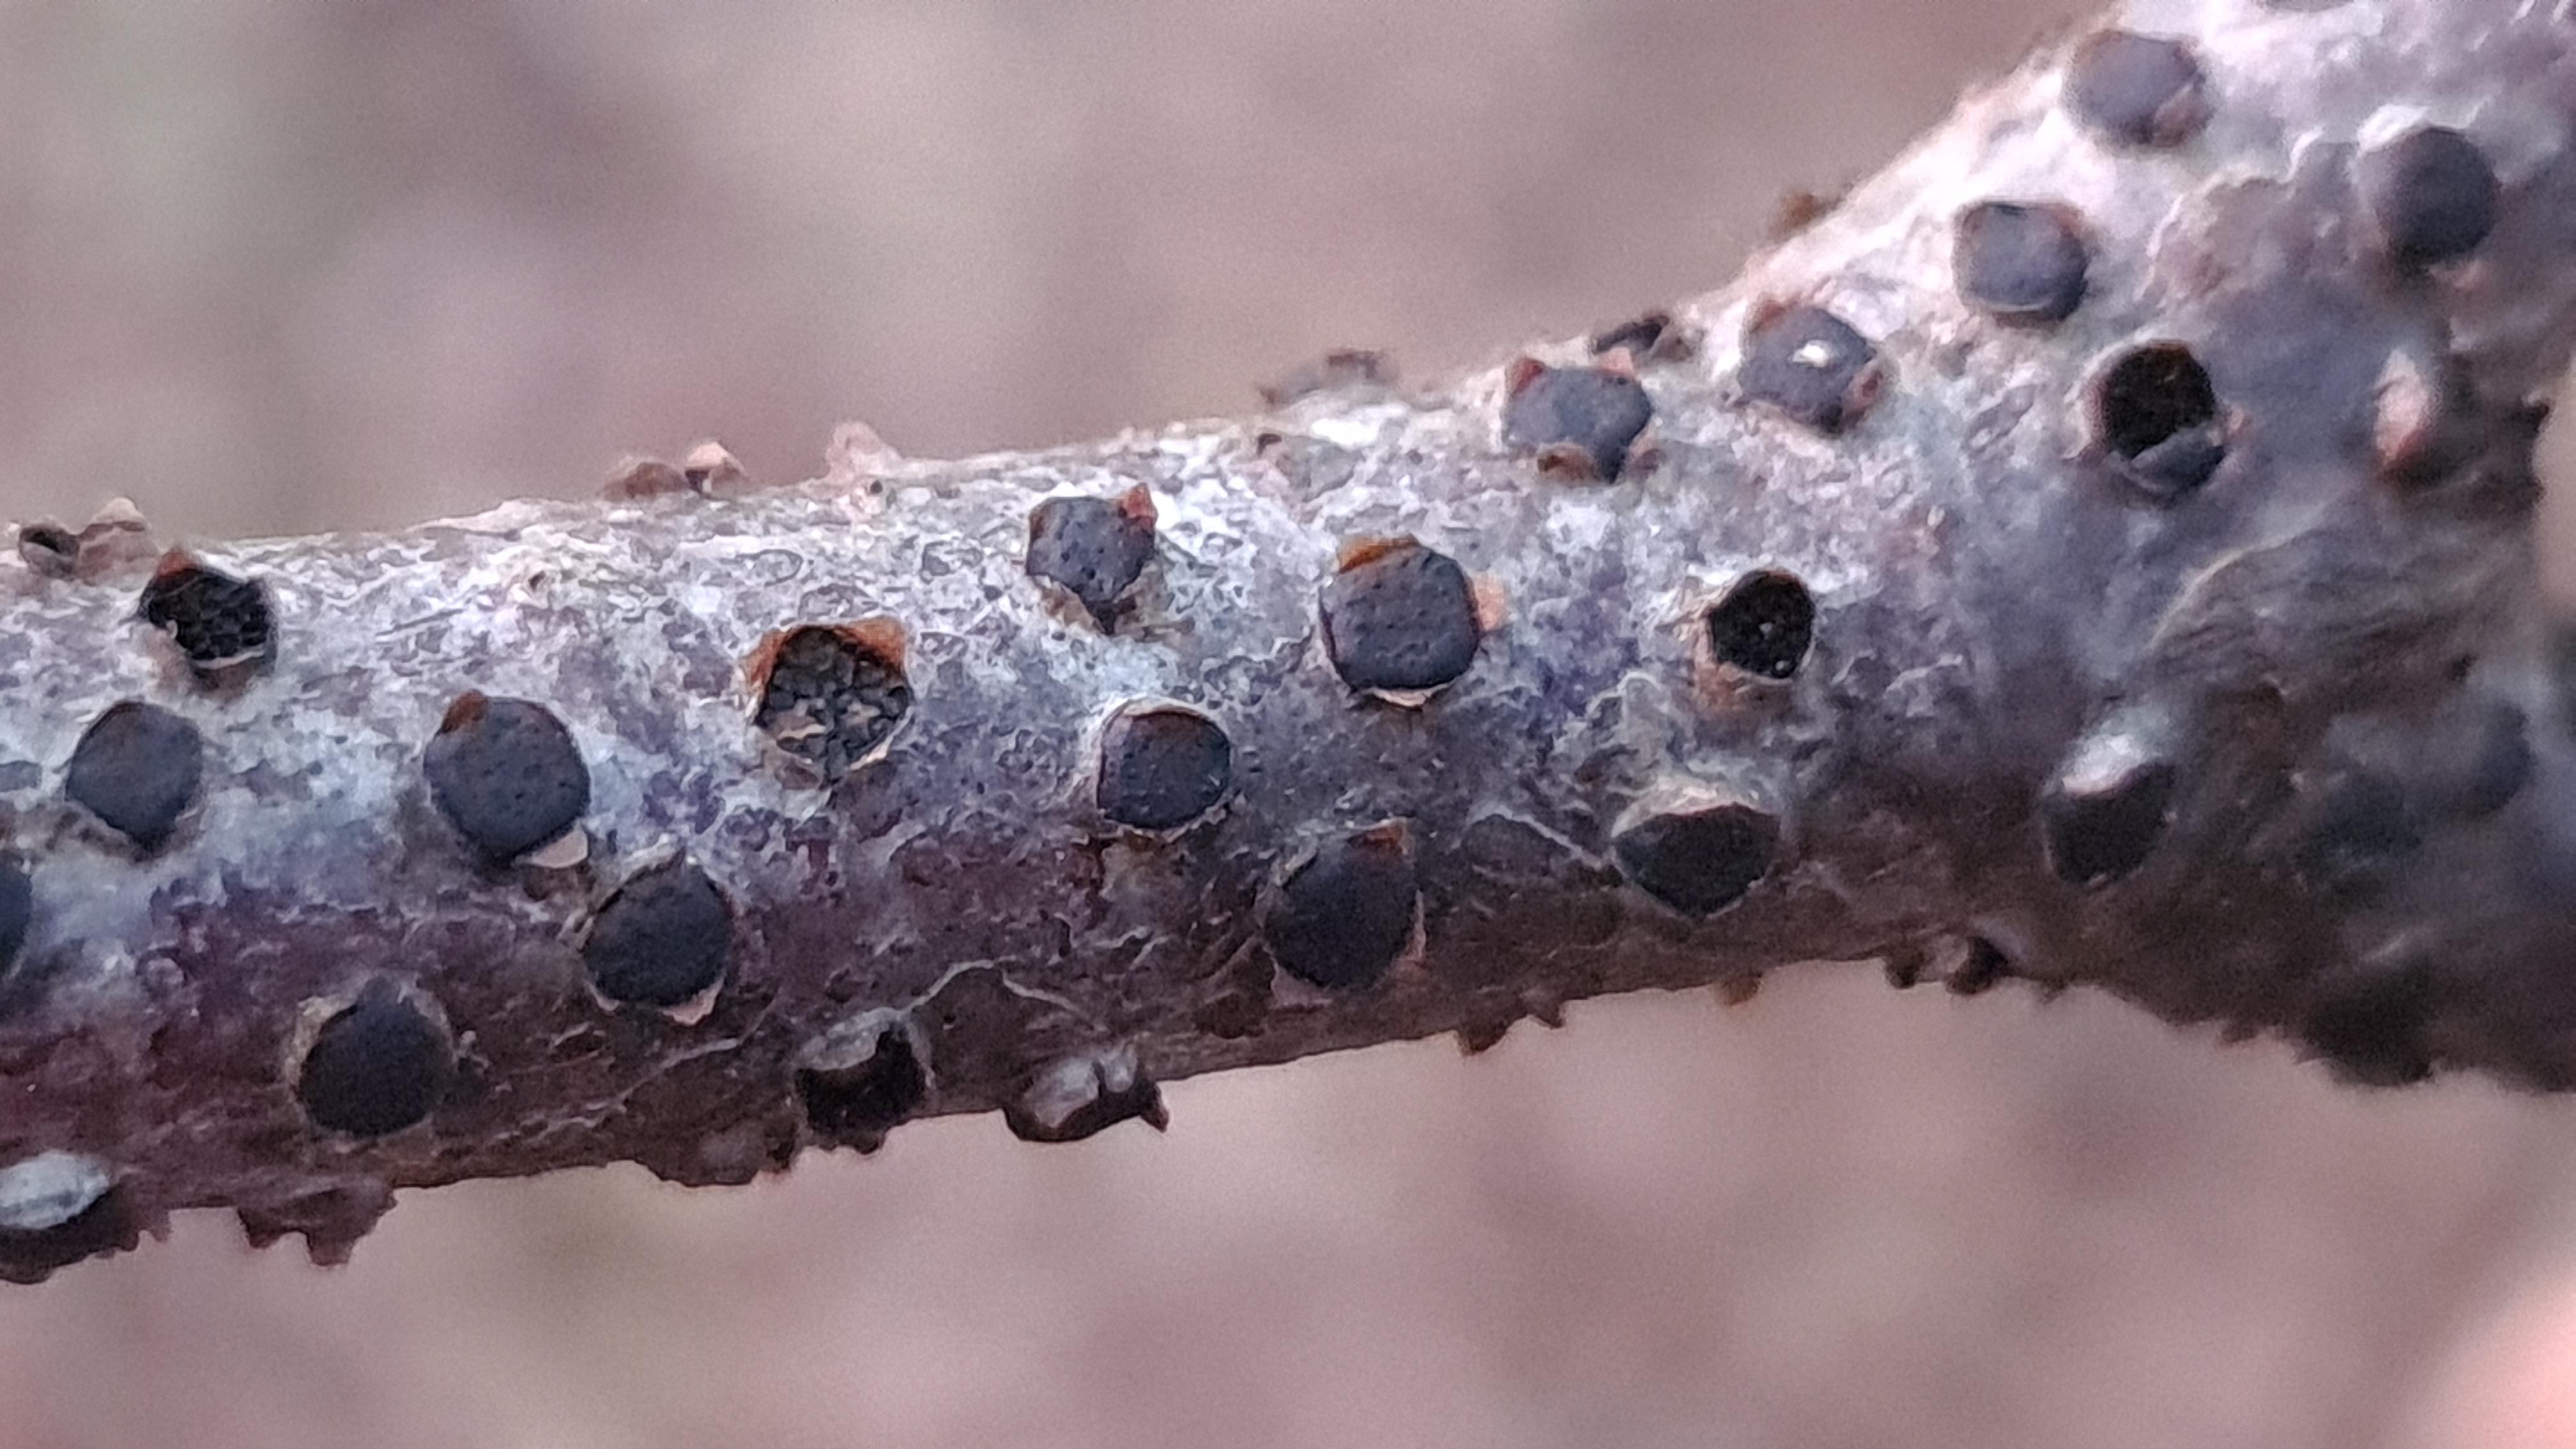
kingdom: Fungi
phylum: Ascomycota
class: Sordariomycetes
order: Xylariales
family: Diatrypaceae
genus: Diatrype
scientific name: Diatrype disciformis
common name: kant-kulskorpe
